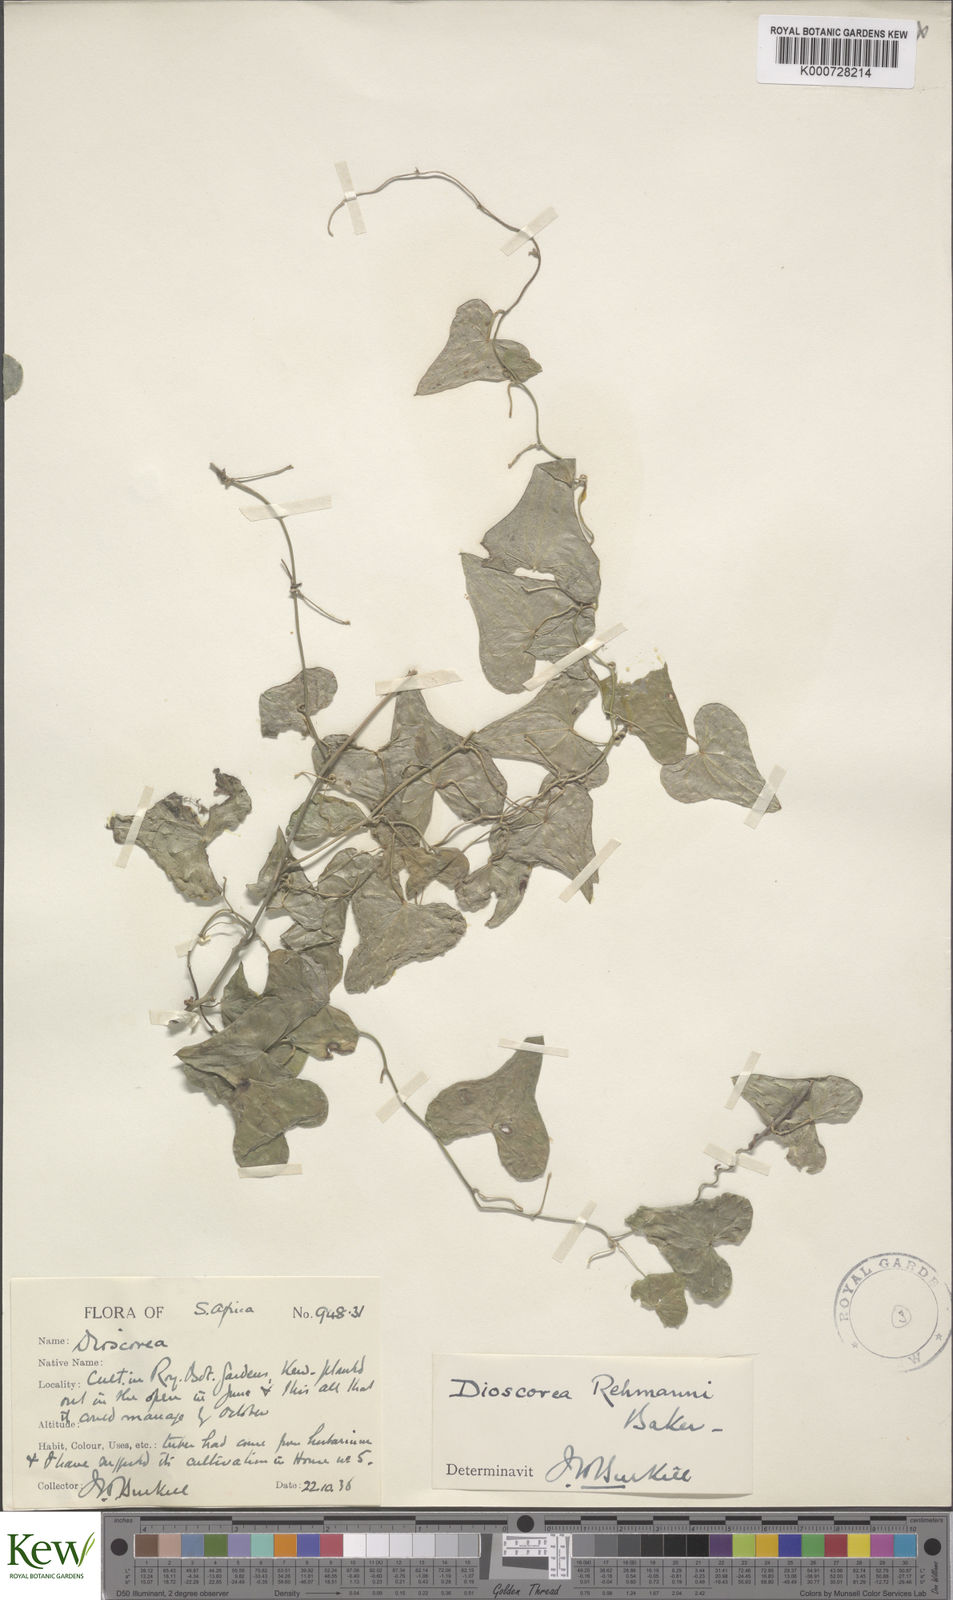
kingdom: Plantae
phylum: Tracheophyta
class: Liliopsida
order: Dioscoreales
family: Dioscoreaceae
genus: Dioscorea
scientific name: Dioscorea sylvatica
